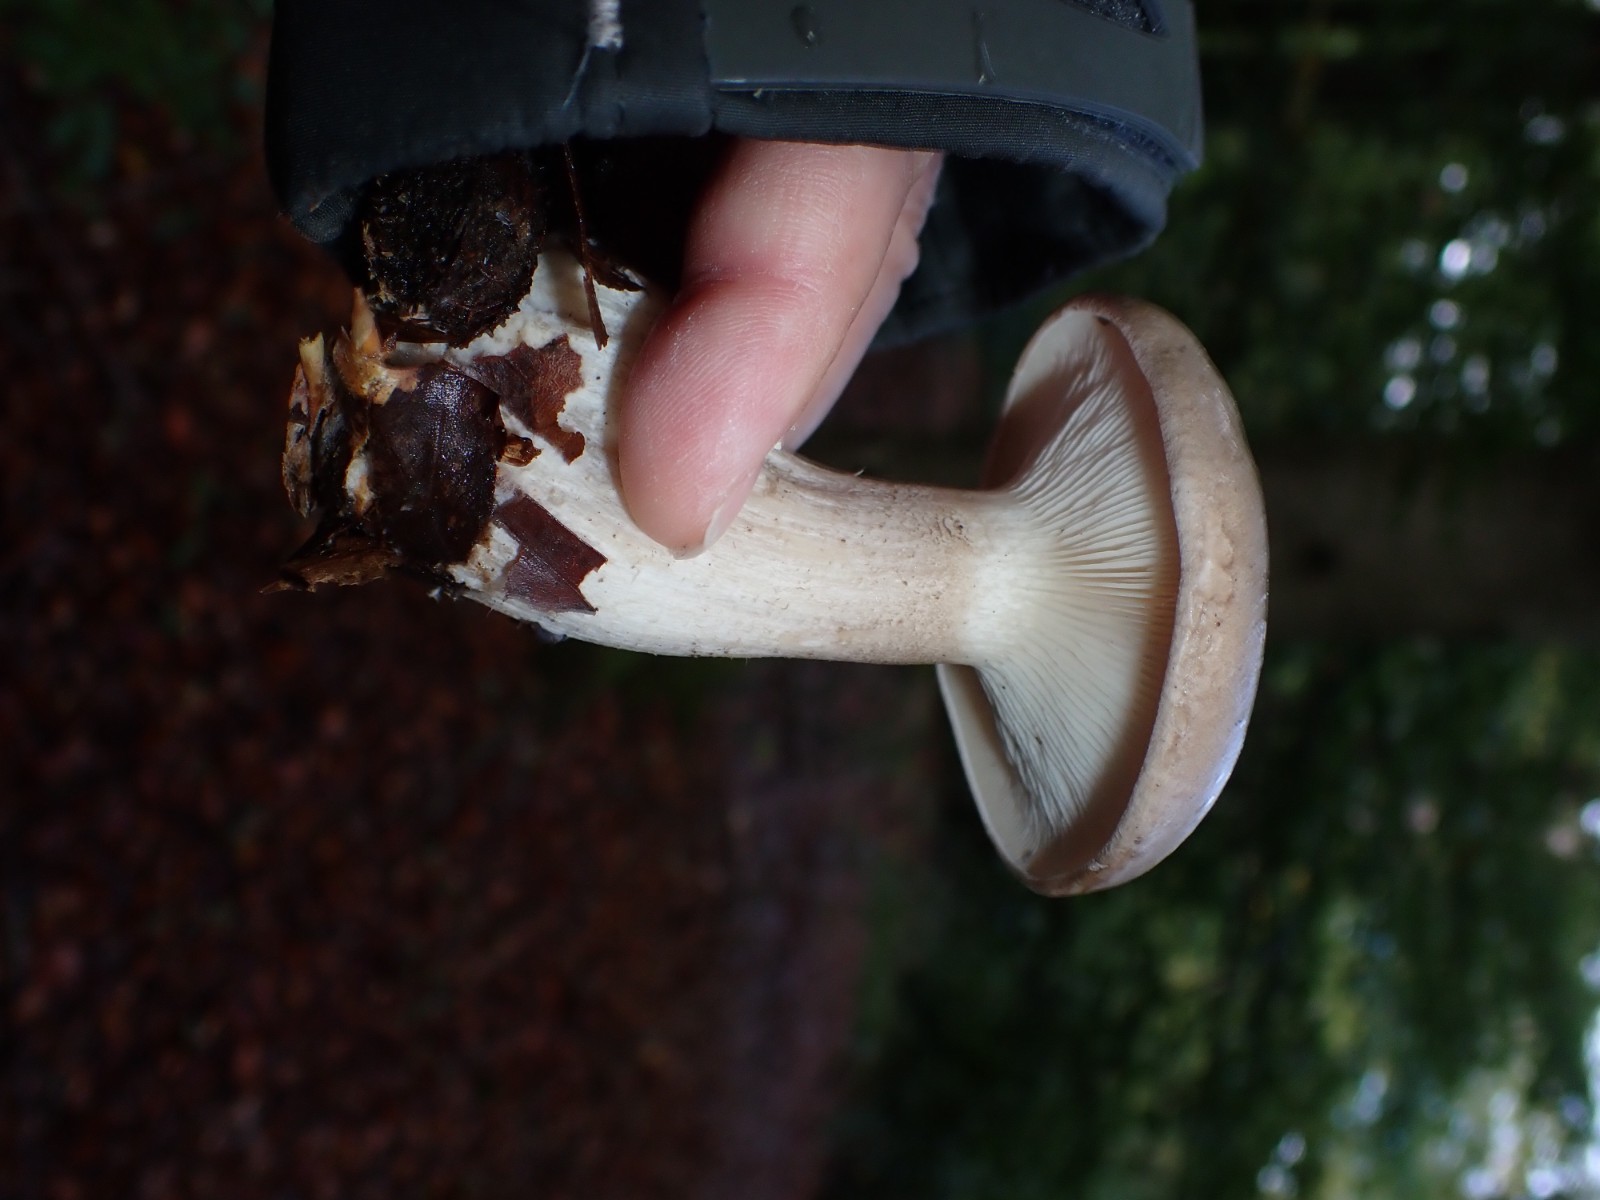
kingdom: Fungi
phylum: Basidiomycota
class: Agaricomycetes
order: Agaricales
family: Tricholomataceae
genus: Clitocybe
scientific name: Clitocybe nebularis
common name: tåge-tragthat
